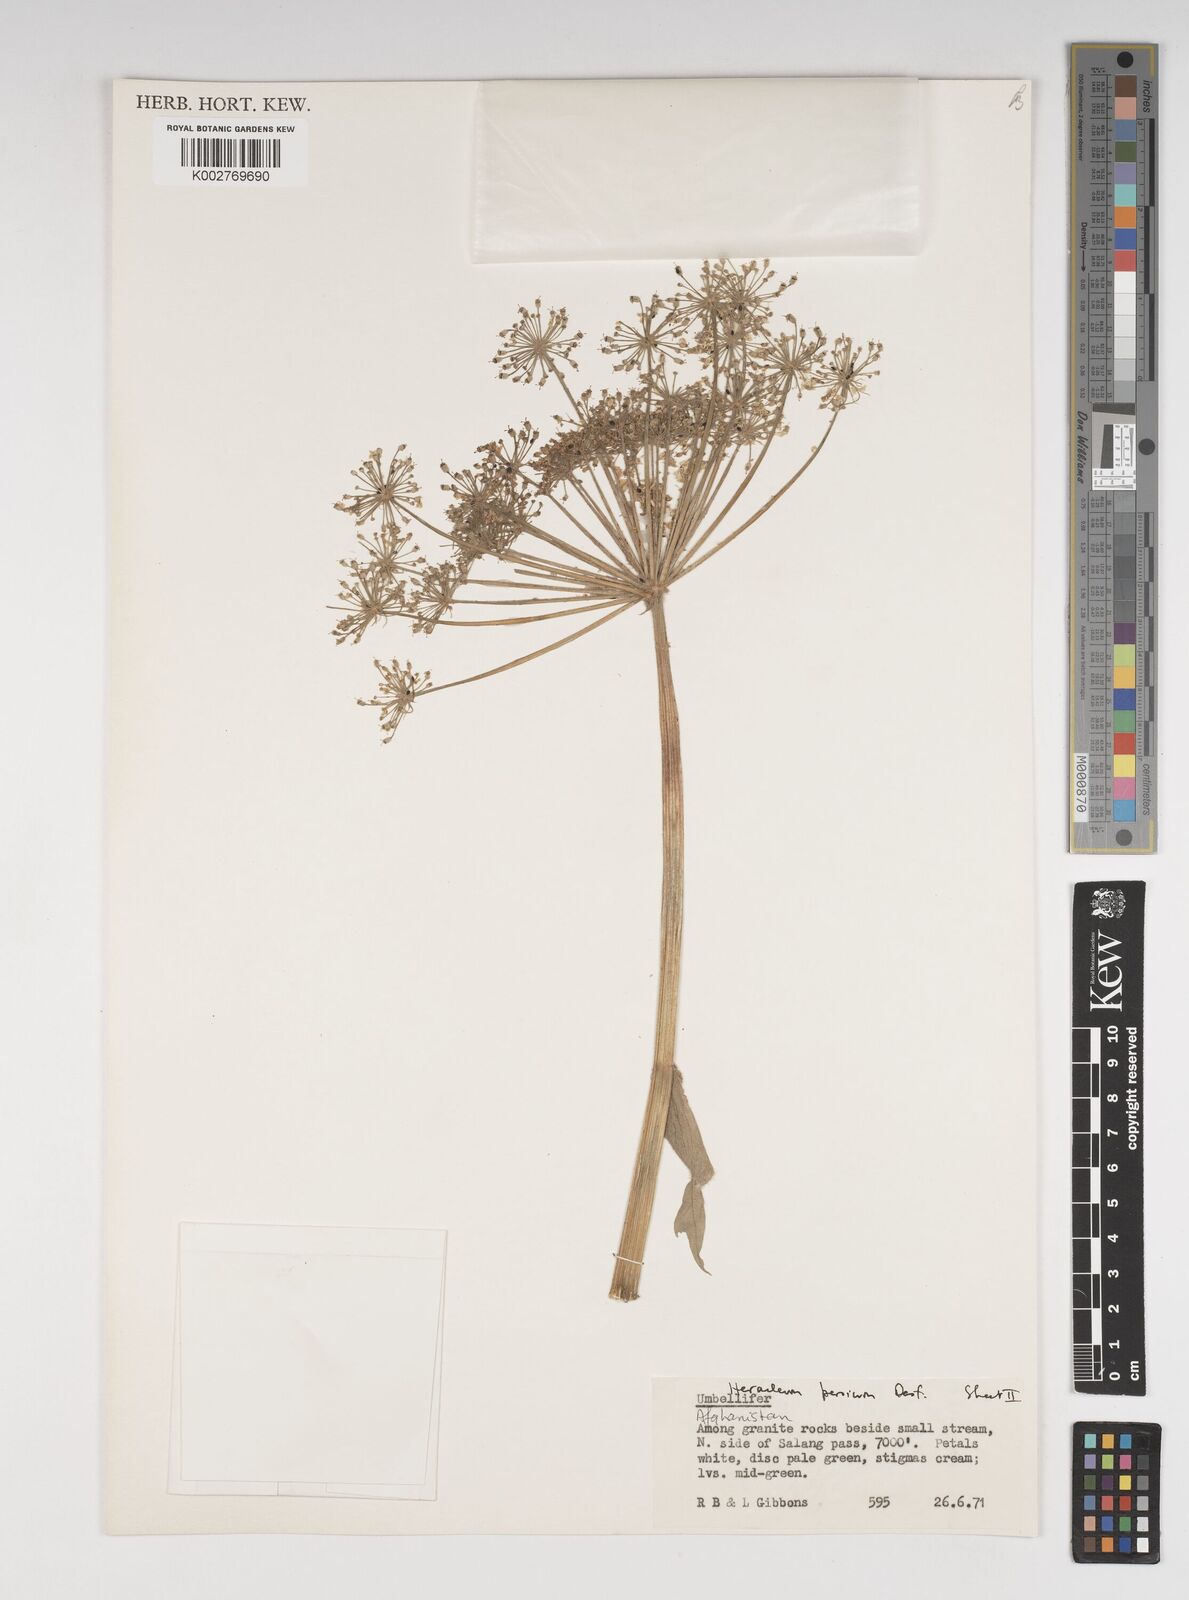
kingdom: Plantae
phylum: Tracheophyta
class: Magnoliopsida
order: Apiales
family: Apiaceae
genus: Heracleum
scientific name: Heracleum persicum
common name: Persian hogweed
